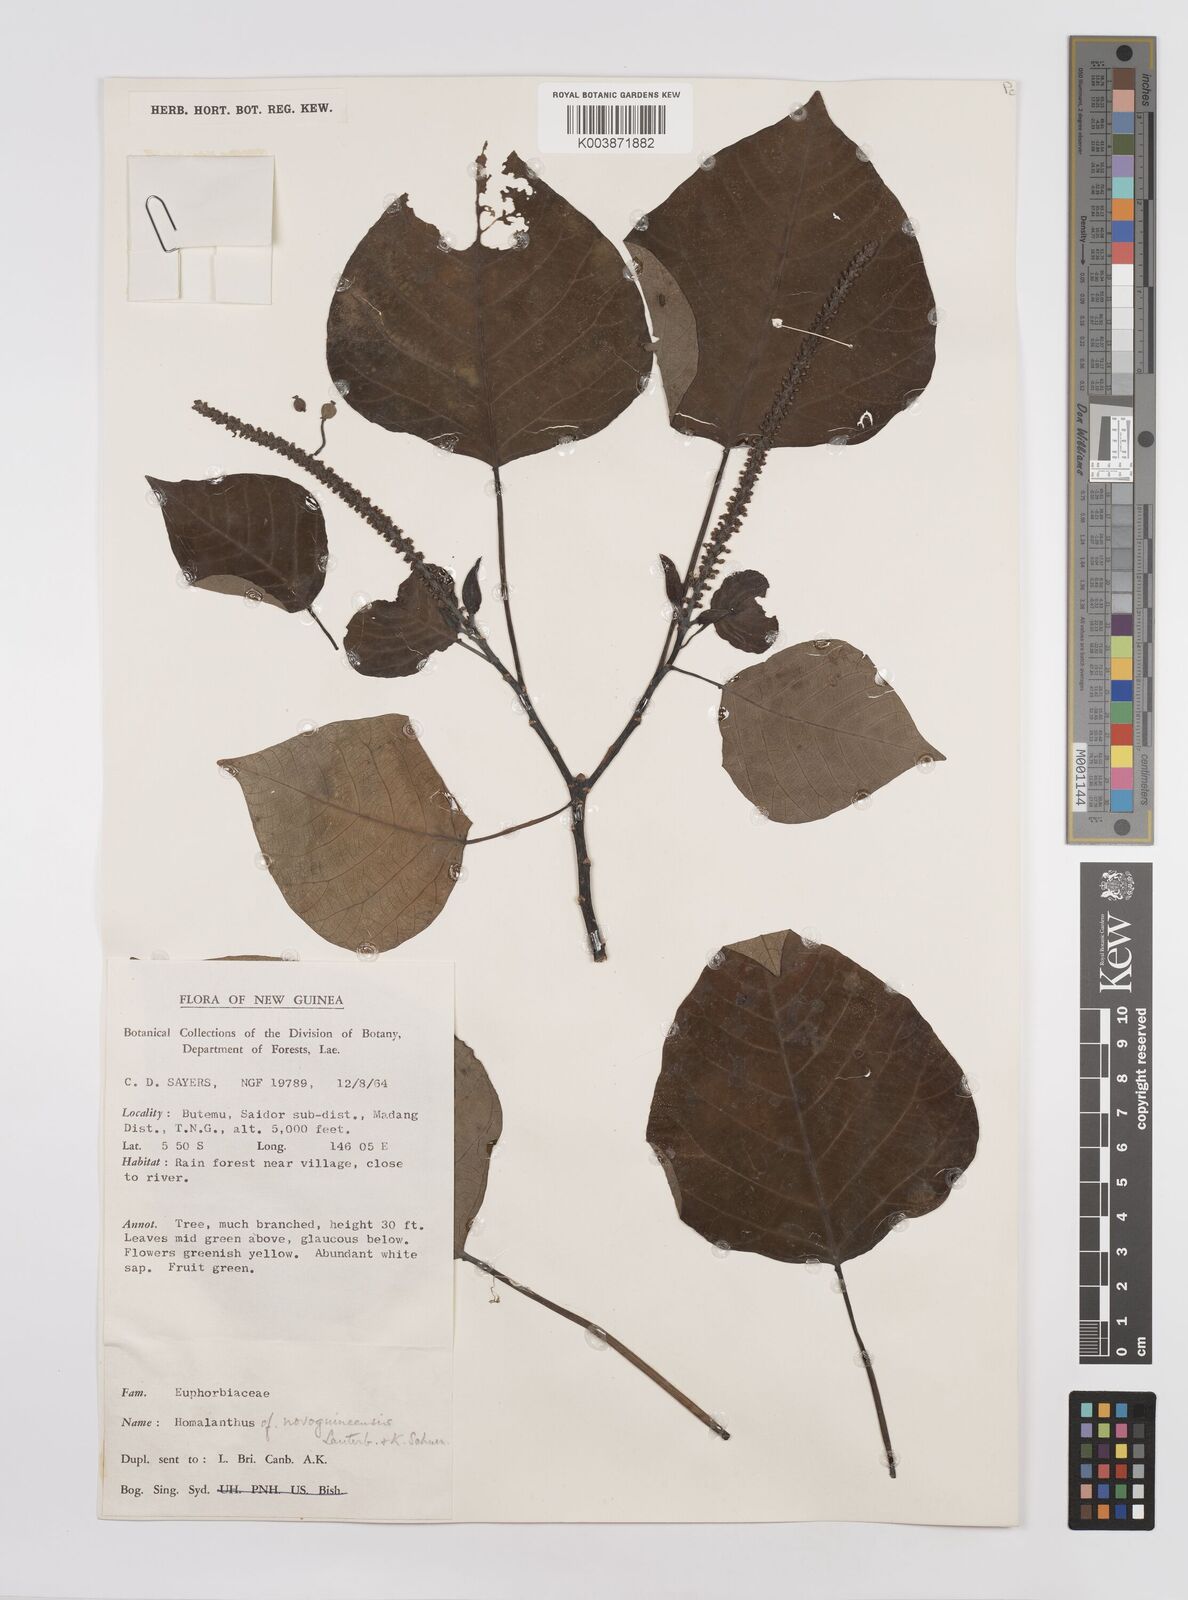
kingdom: Plantae
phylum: Tracheophyta
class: Magnoliopsida
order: Malpighiales
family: Euphorbiaceae
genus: Homalanthus
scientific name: Homalanthus novoguineensis
